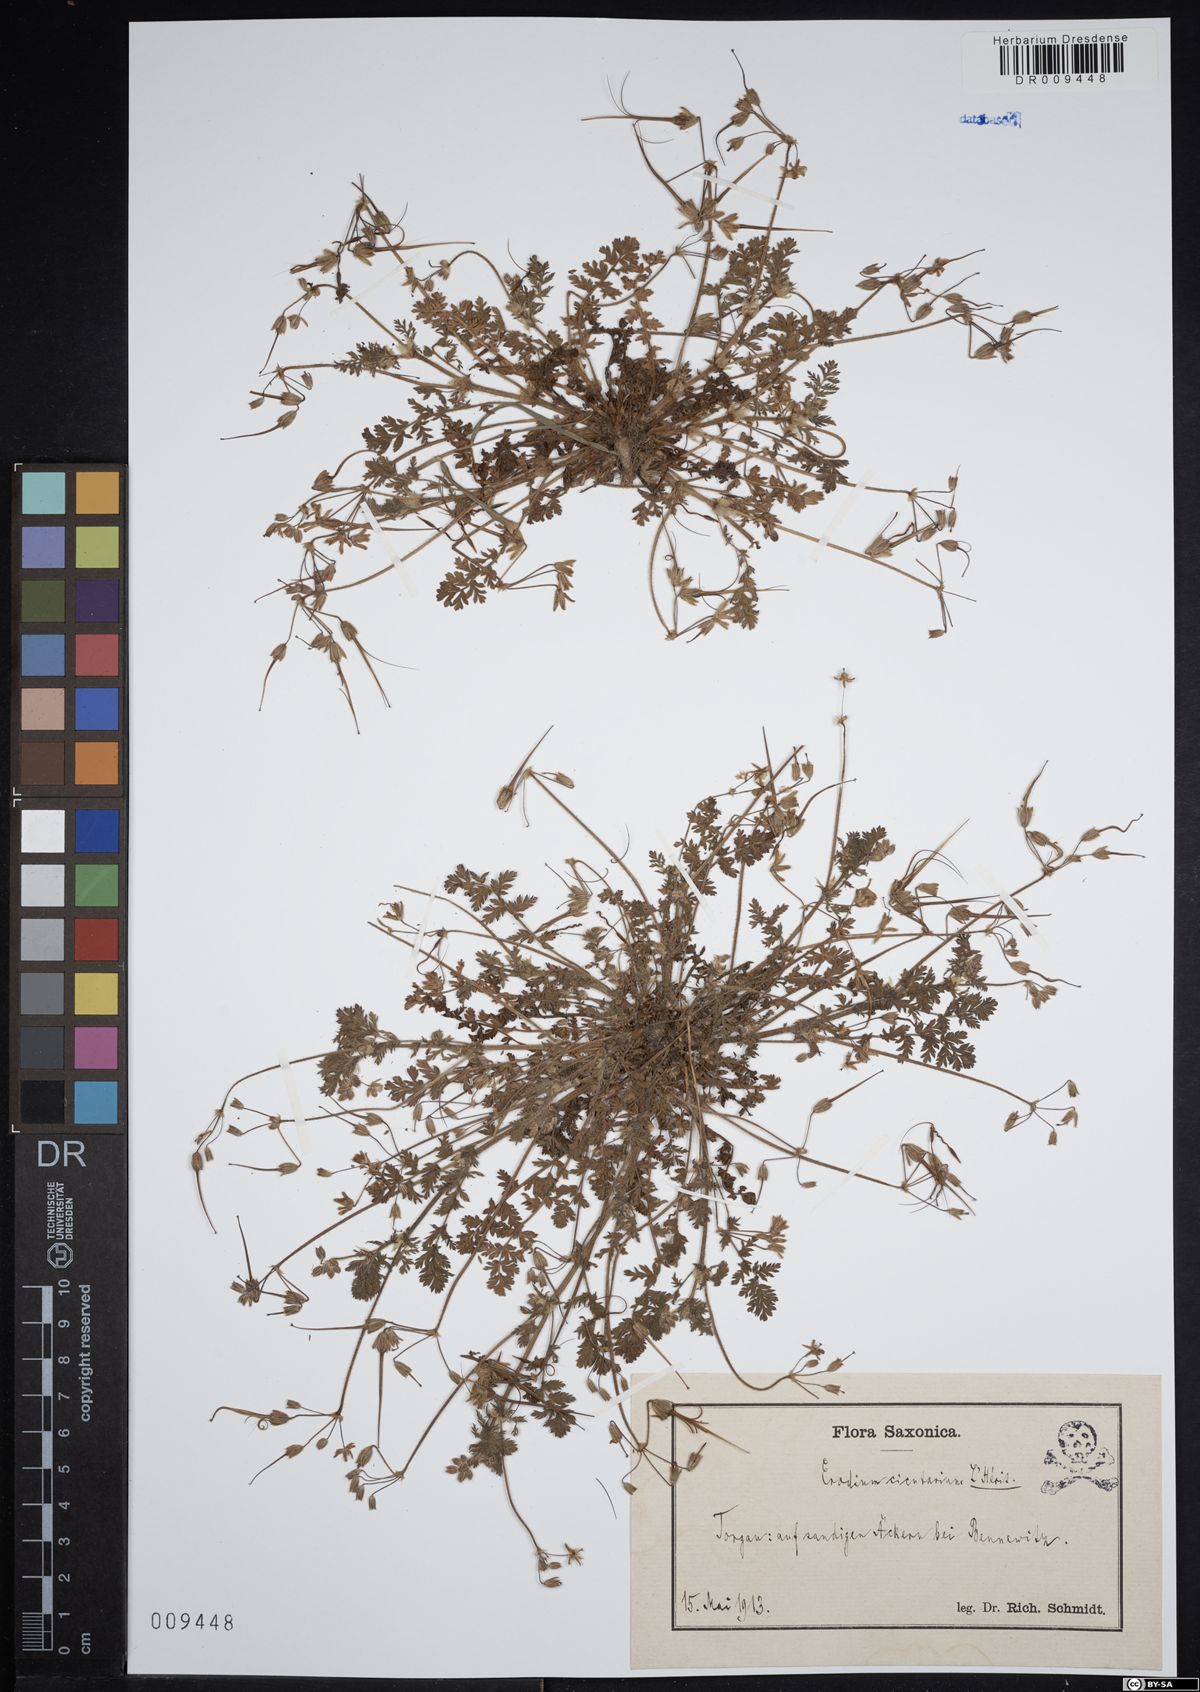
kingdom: Plantae
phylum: Tracheophyta
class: Magnoliopsida
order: Geraniales
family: Geraniaceae
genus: Erodium
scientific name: Erodium cicutarium
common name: Common stork's-bill
